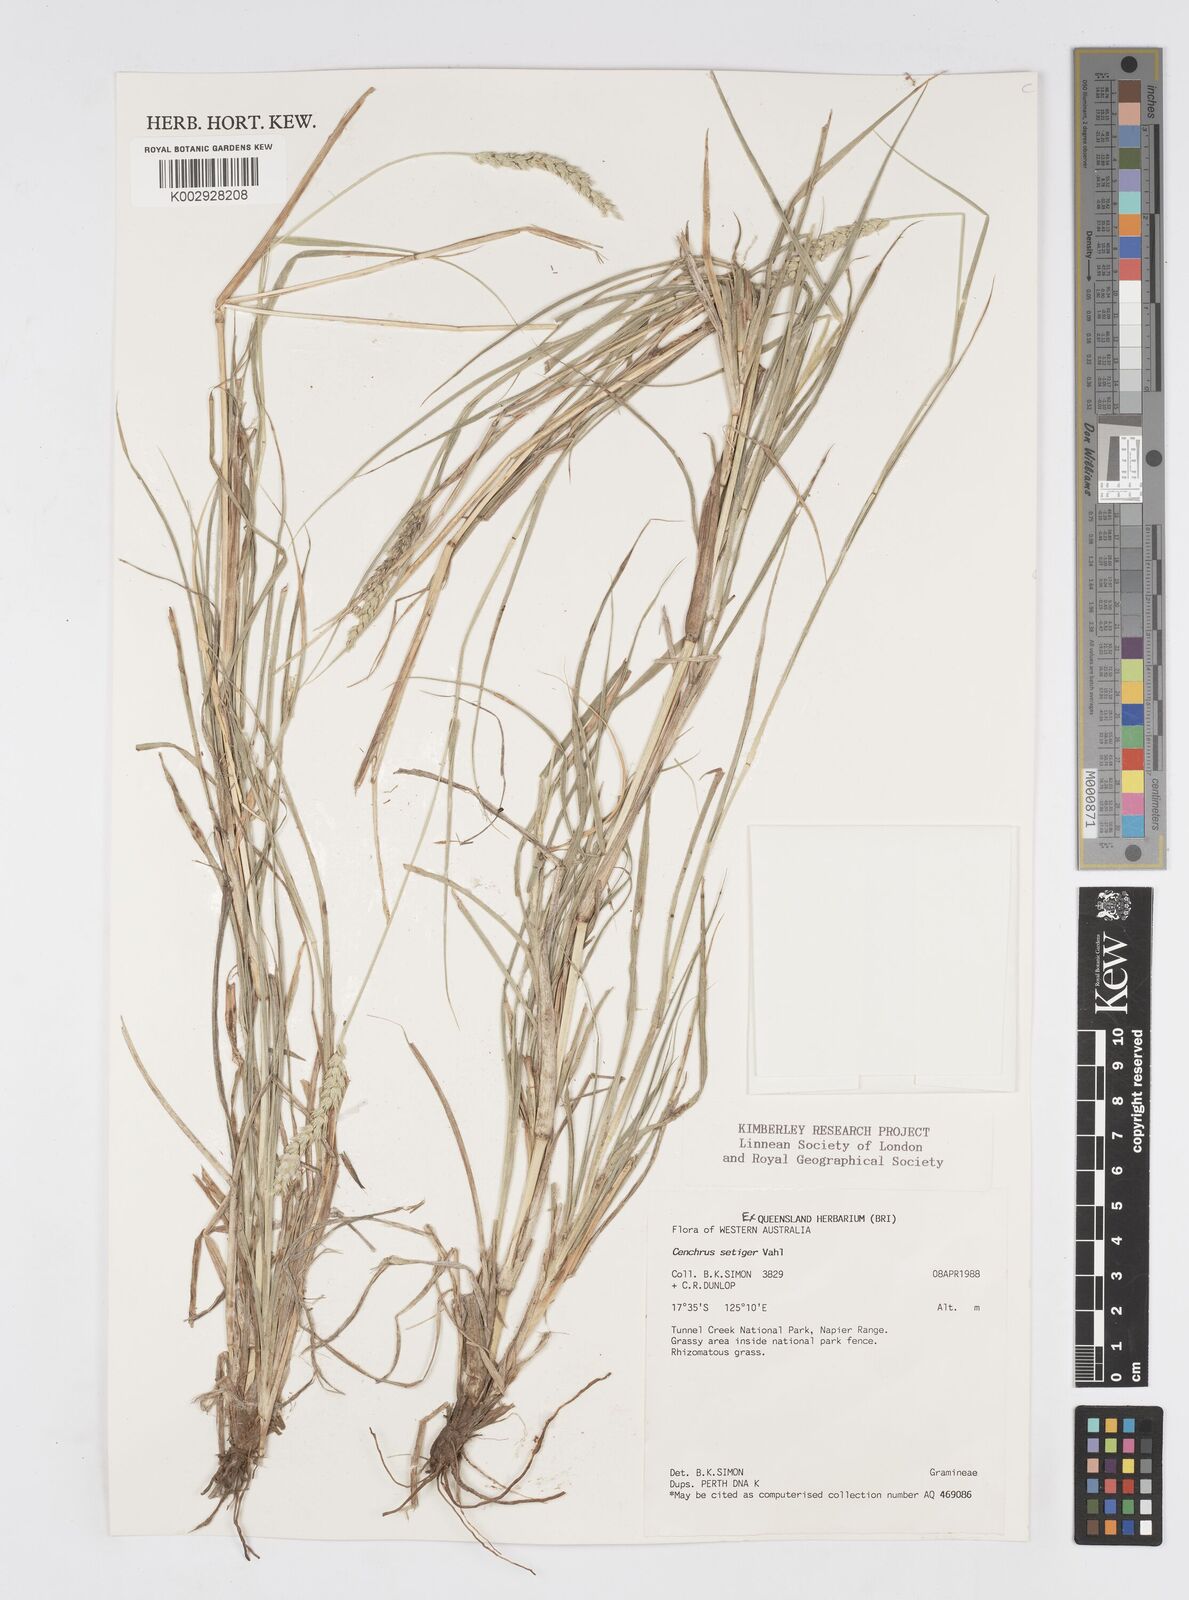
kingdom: Plantae
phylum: Tracheophyta
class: Liliopsida
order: Poales
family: Poaceae
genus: Cenchrus
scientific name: Cenchrus setigerus
